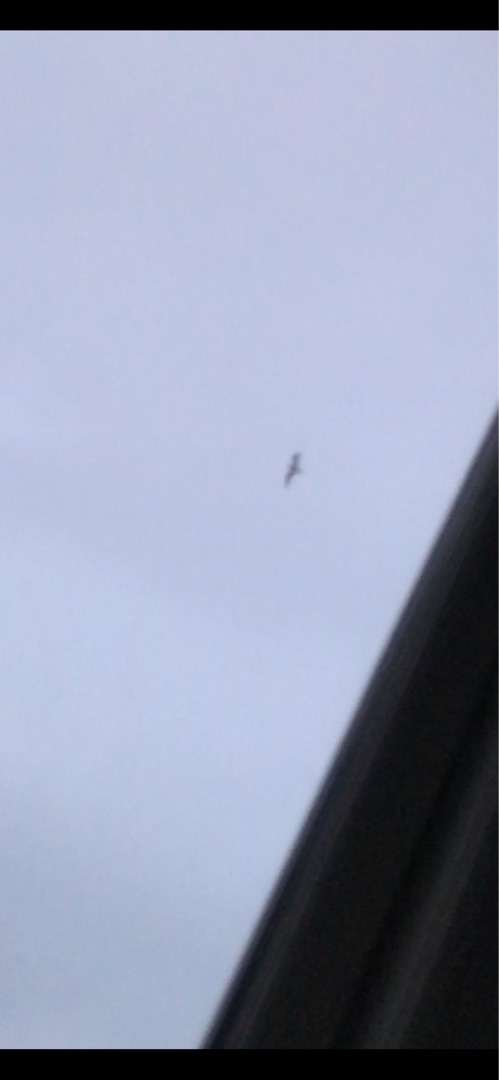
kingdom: Animalia
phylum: Chordata
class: Aves
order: Charadriiformes
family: Laridae
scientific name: Laridae
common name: Måger & terner
